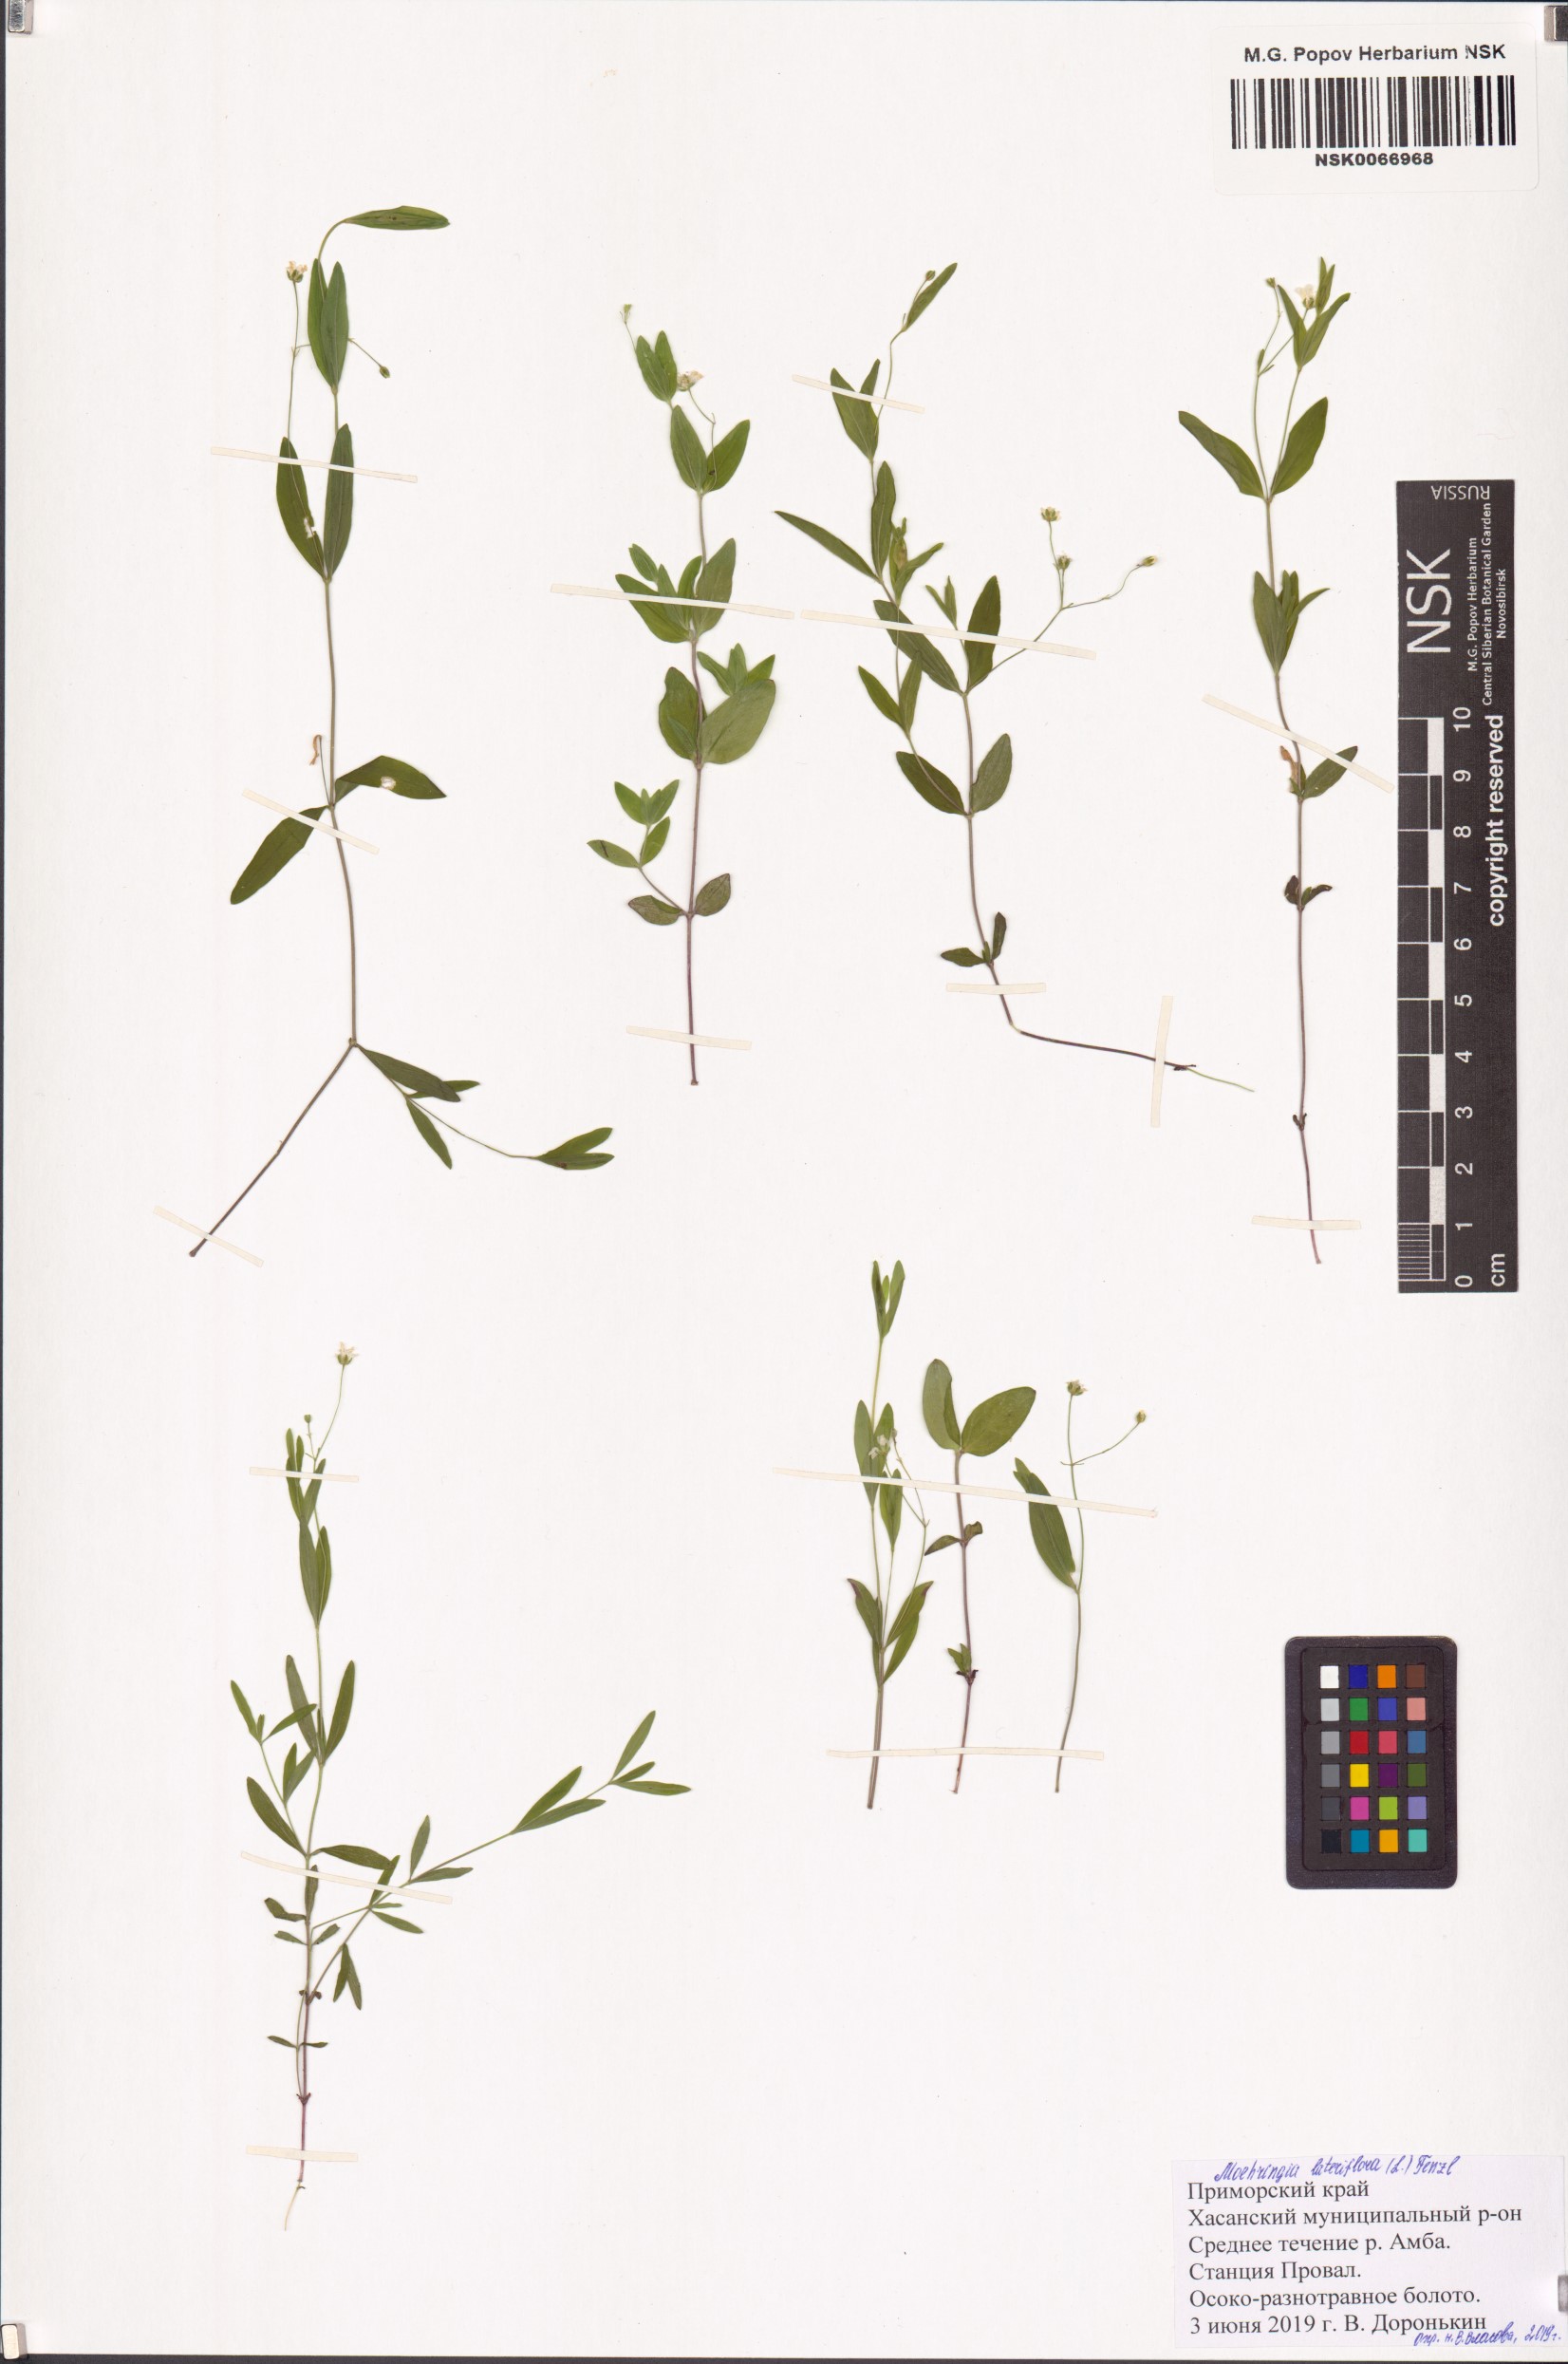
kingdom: Plantae
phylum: Tracheophyta
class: Magnoliopsida
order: Caryophyllales
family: Caryophyllaceae
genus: Moehringia
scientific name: Moehringia lateriflora
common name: Blunt-leaved sandwort
